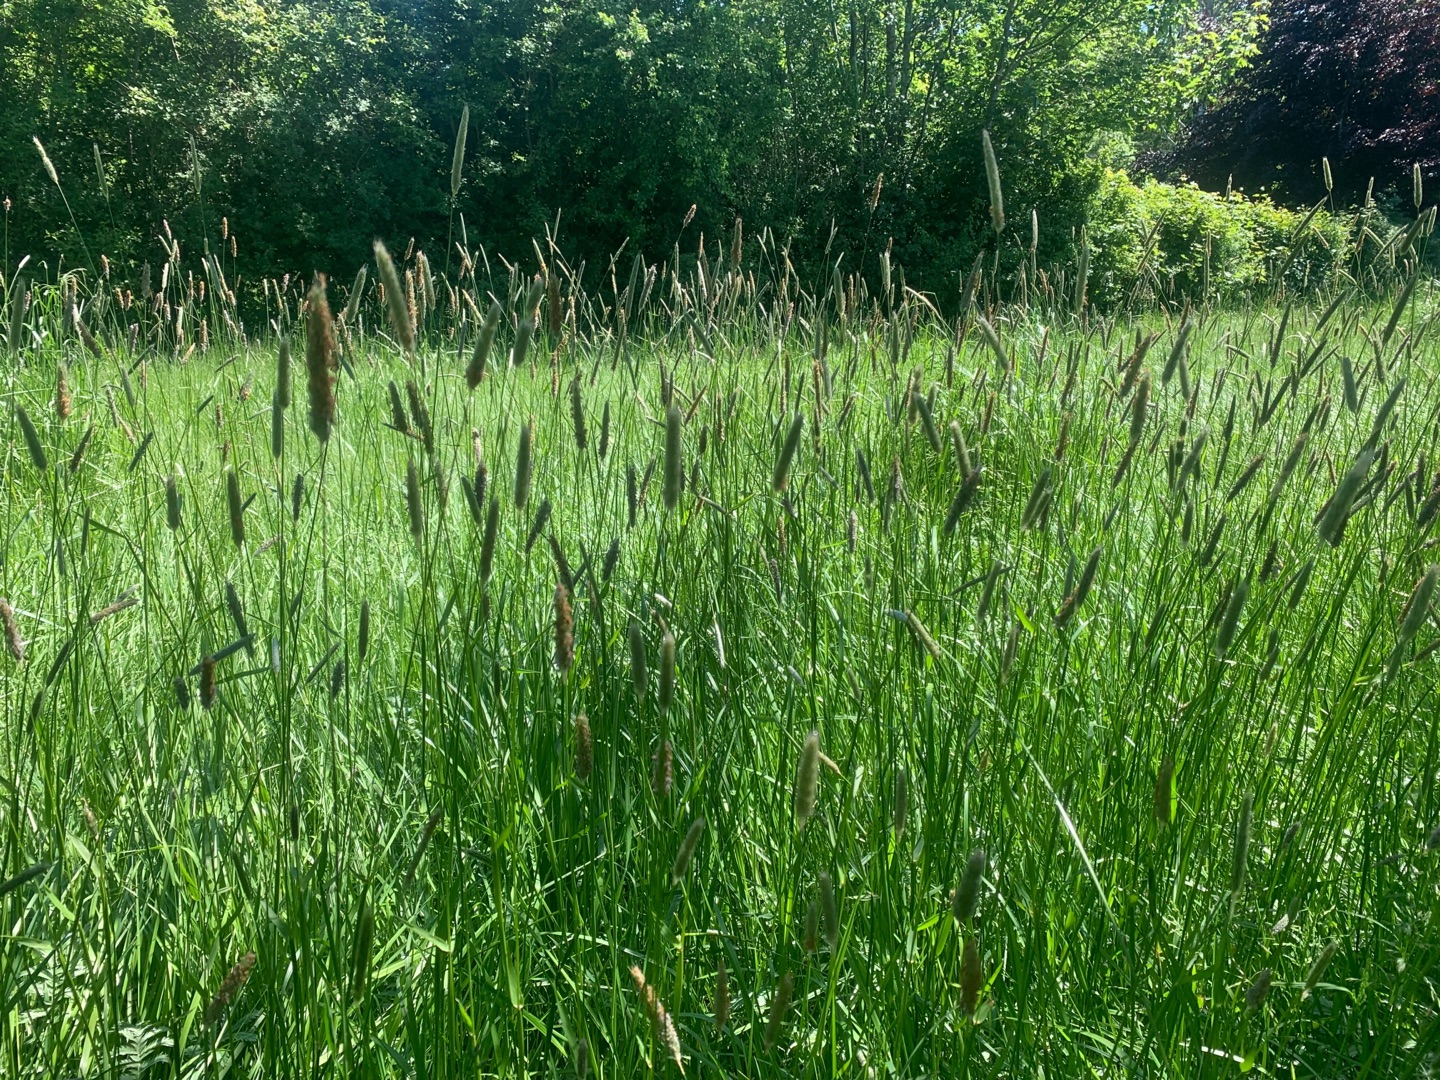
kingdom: Plantae
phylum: Tracheophyta
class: Liliopsida
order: Poales
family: Poaceae
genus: Alopecurus
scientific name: Alopecurus pratensis
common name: Eng-rævehale
